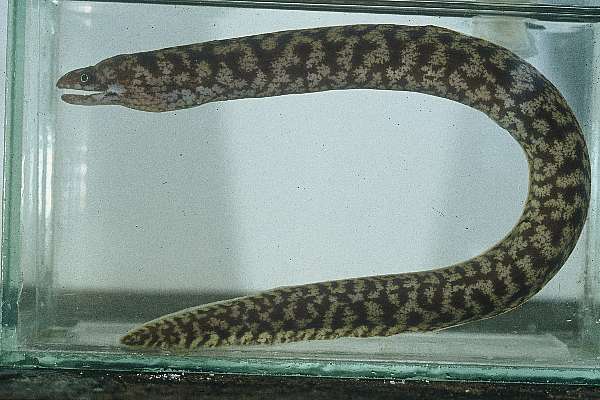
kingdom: Animalia
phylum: Chordata
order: Anguilliformes
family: Muraenidae
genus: Gymnothorax
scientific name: Gymnothorax chilospilus
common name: Lipspot moray
